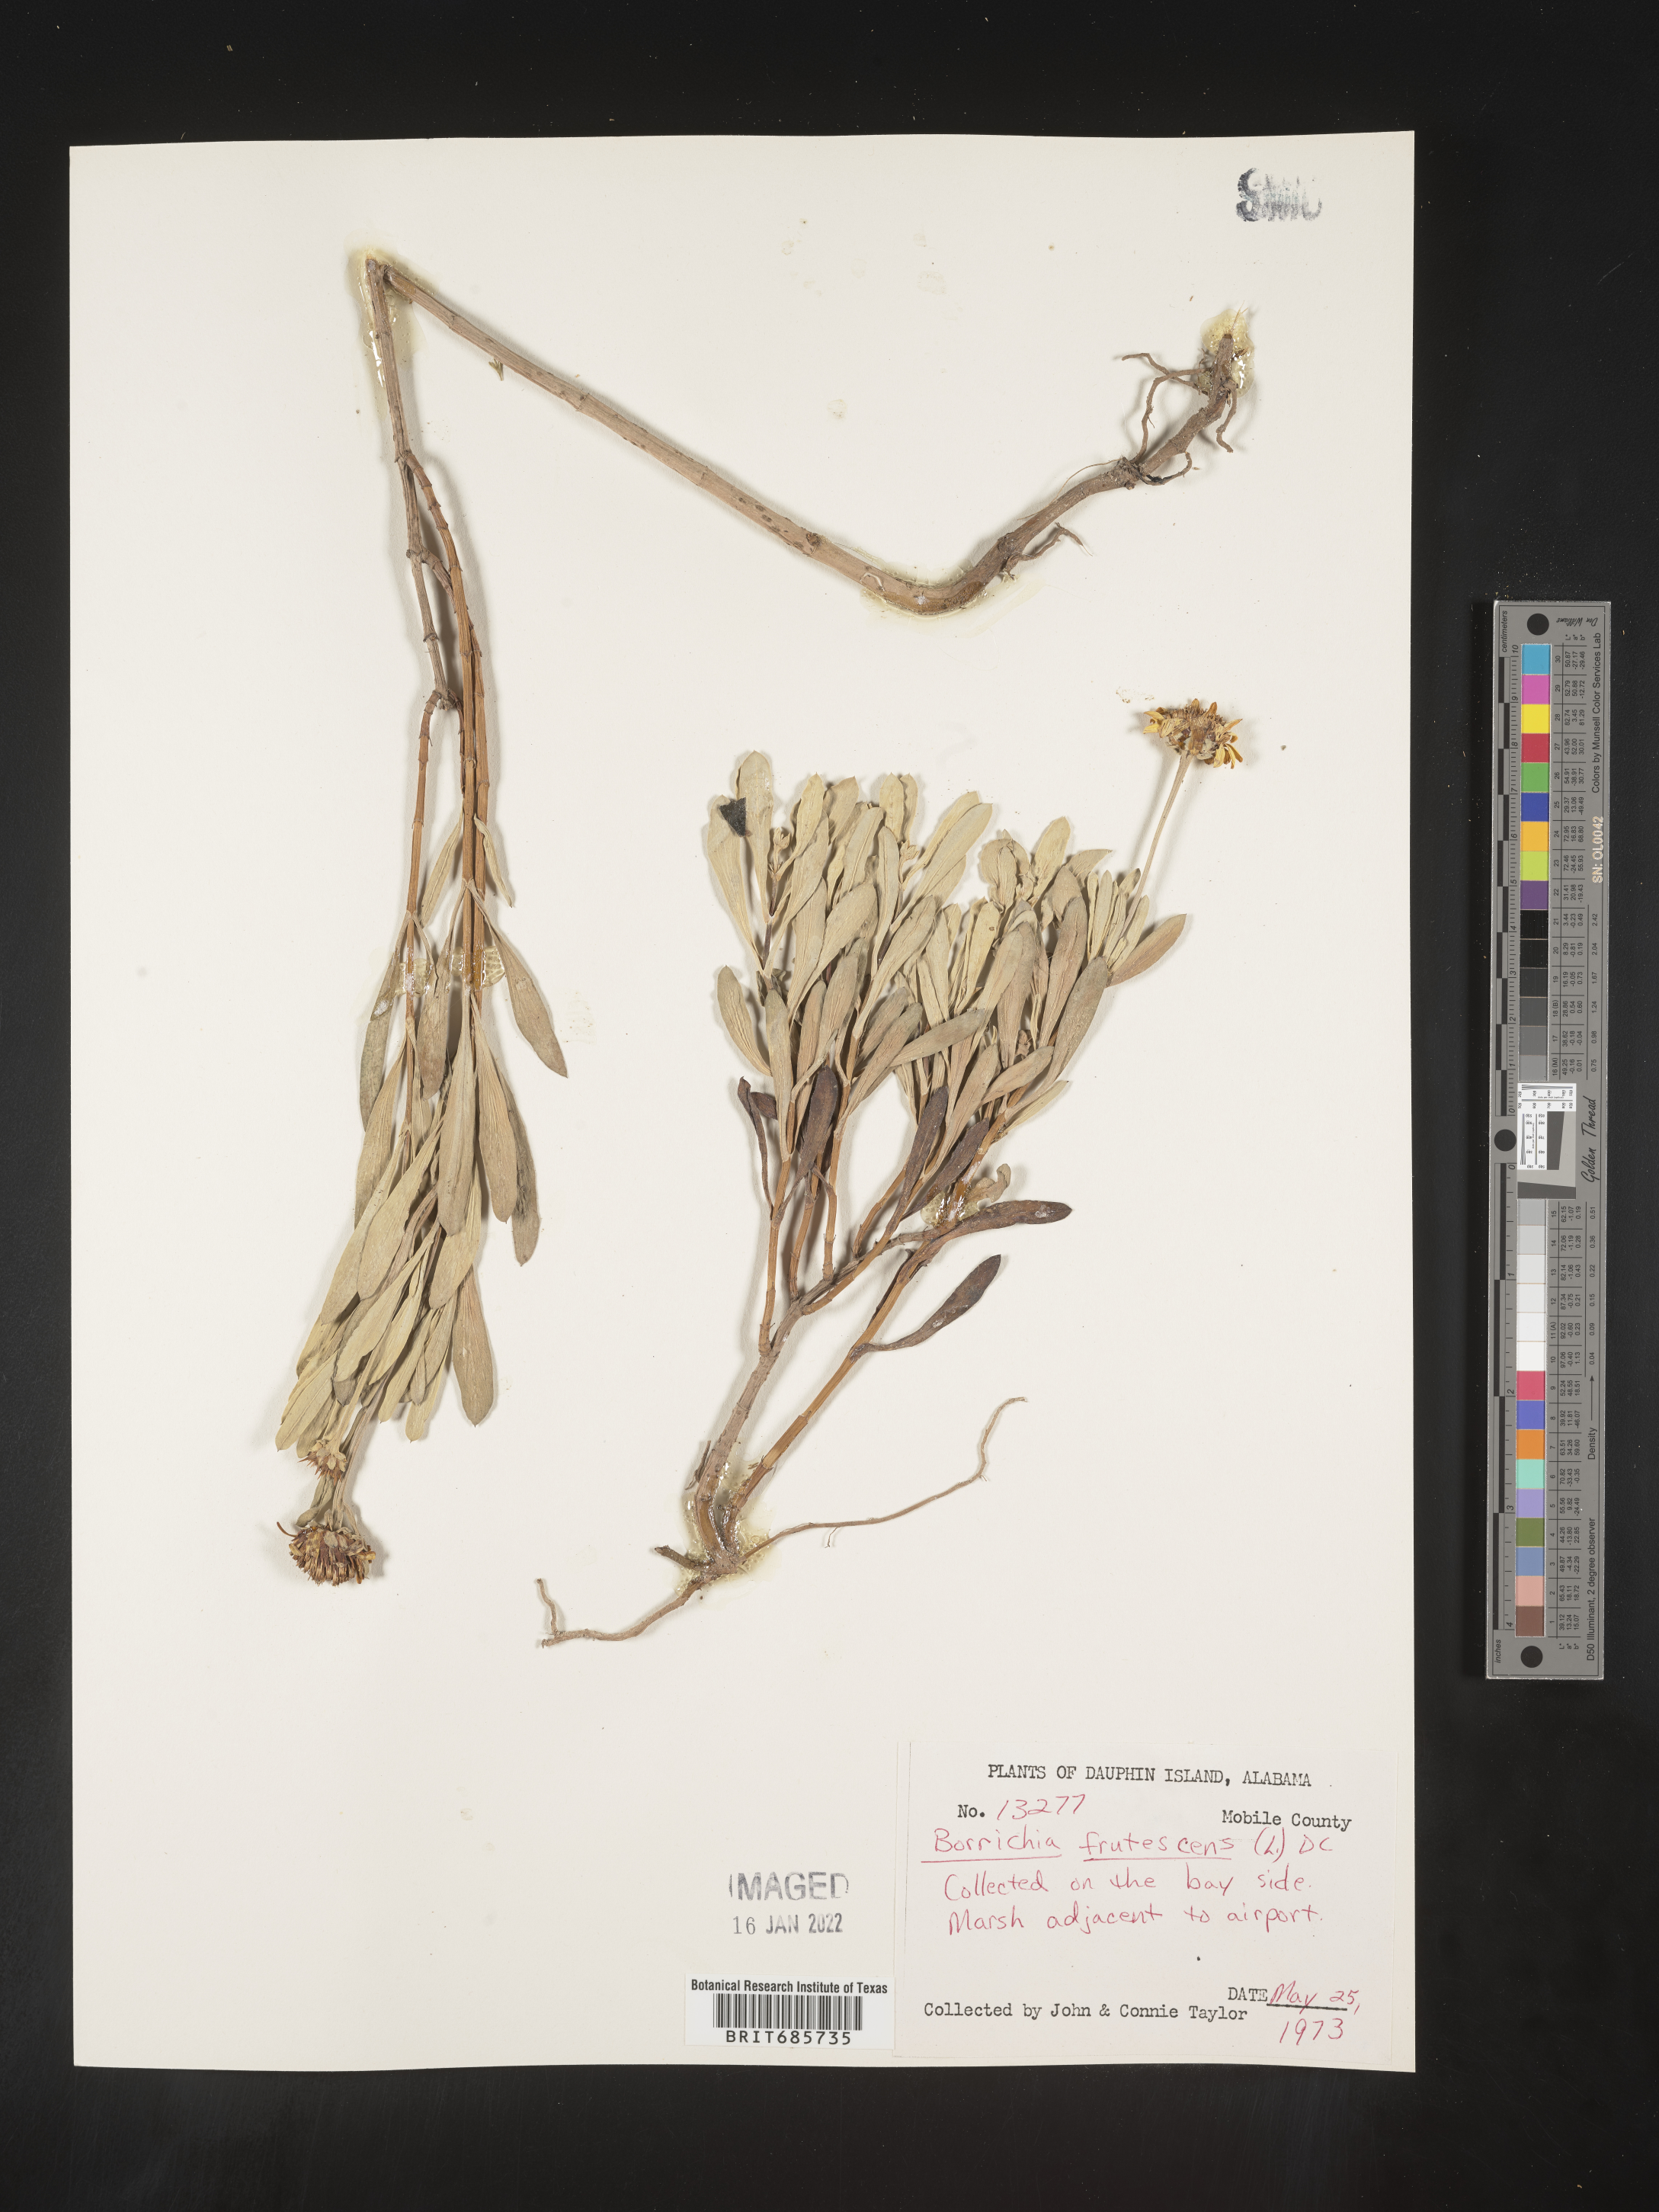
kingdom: Plantae
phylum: Tracheophyta
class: Magnoliopsida
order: Asterales
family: Asteraceae
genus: Borrichia
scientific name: Borrichia frutescens
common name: Sea oxeye
